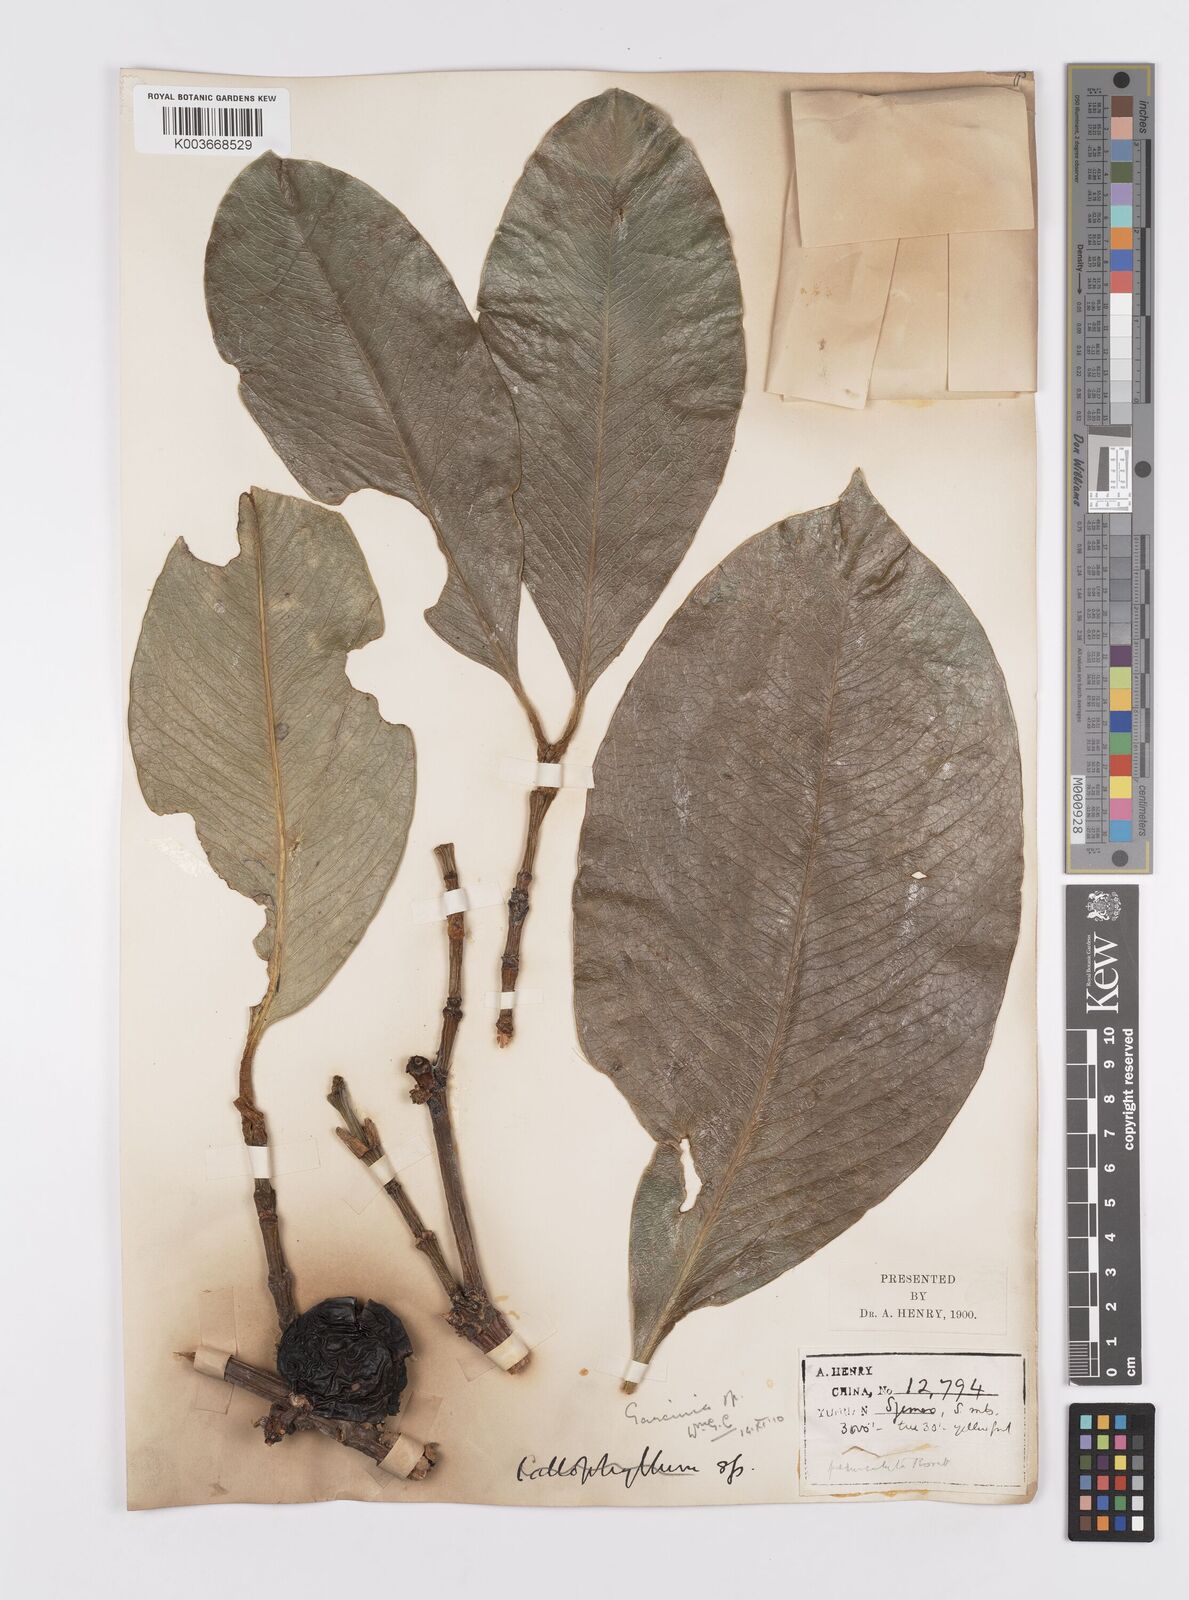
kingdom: Plantae
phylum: Tracheophyta
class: Magnoliopsida
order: Malpighiales
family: Clusiaceae
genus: Garcinia
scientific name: Garcinia pedunculata
